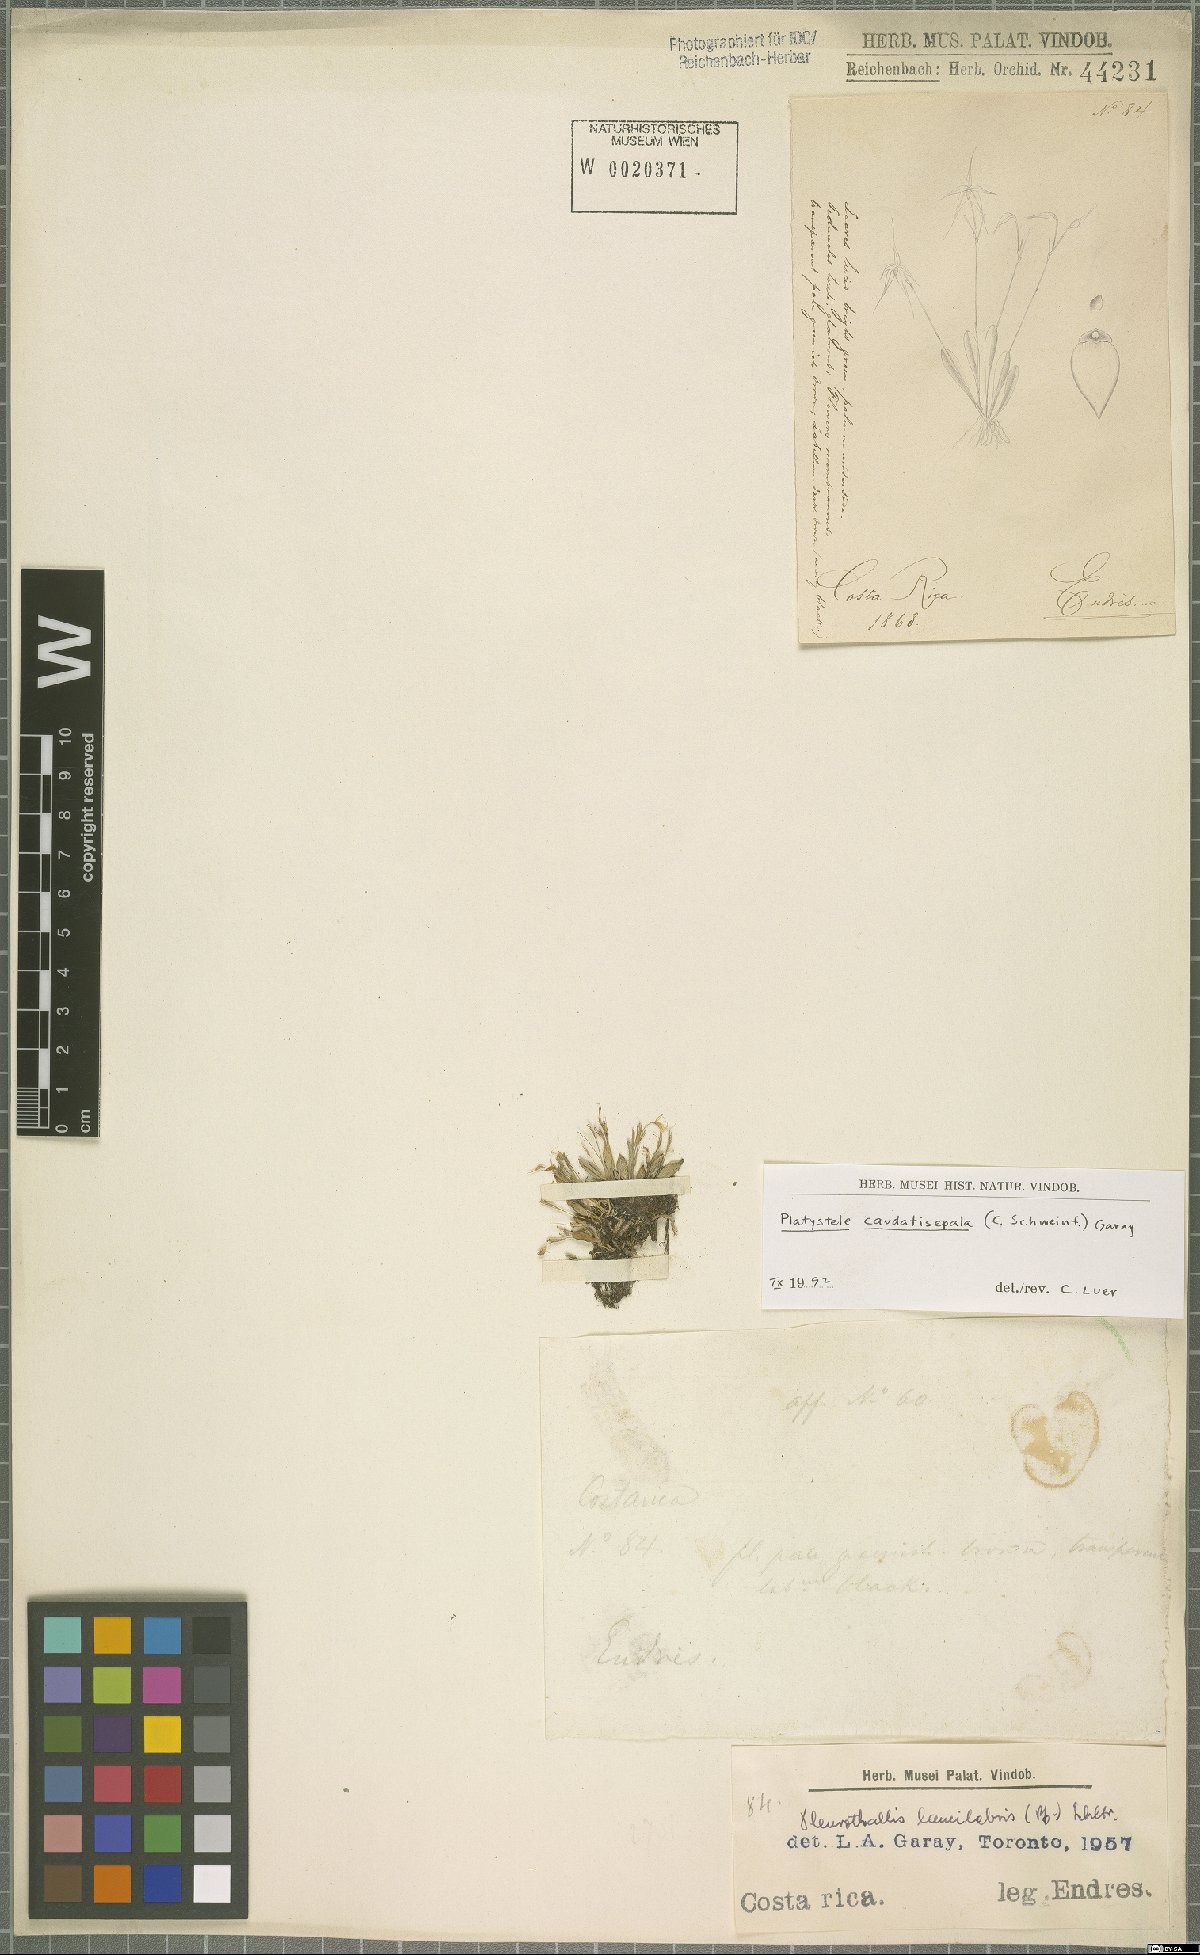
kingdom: Plantae
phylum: Tracheophyta
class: Liliopsida
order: Asparagales
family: Orchidaceae
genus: Platystele
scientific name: Platystele caudatisepala
